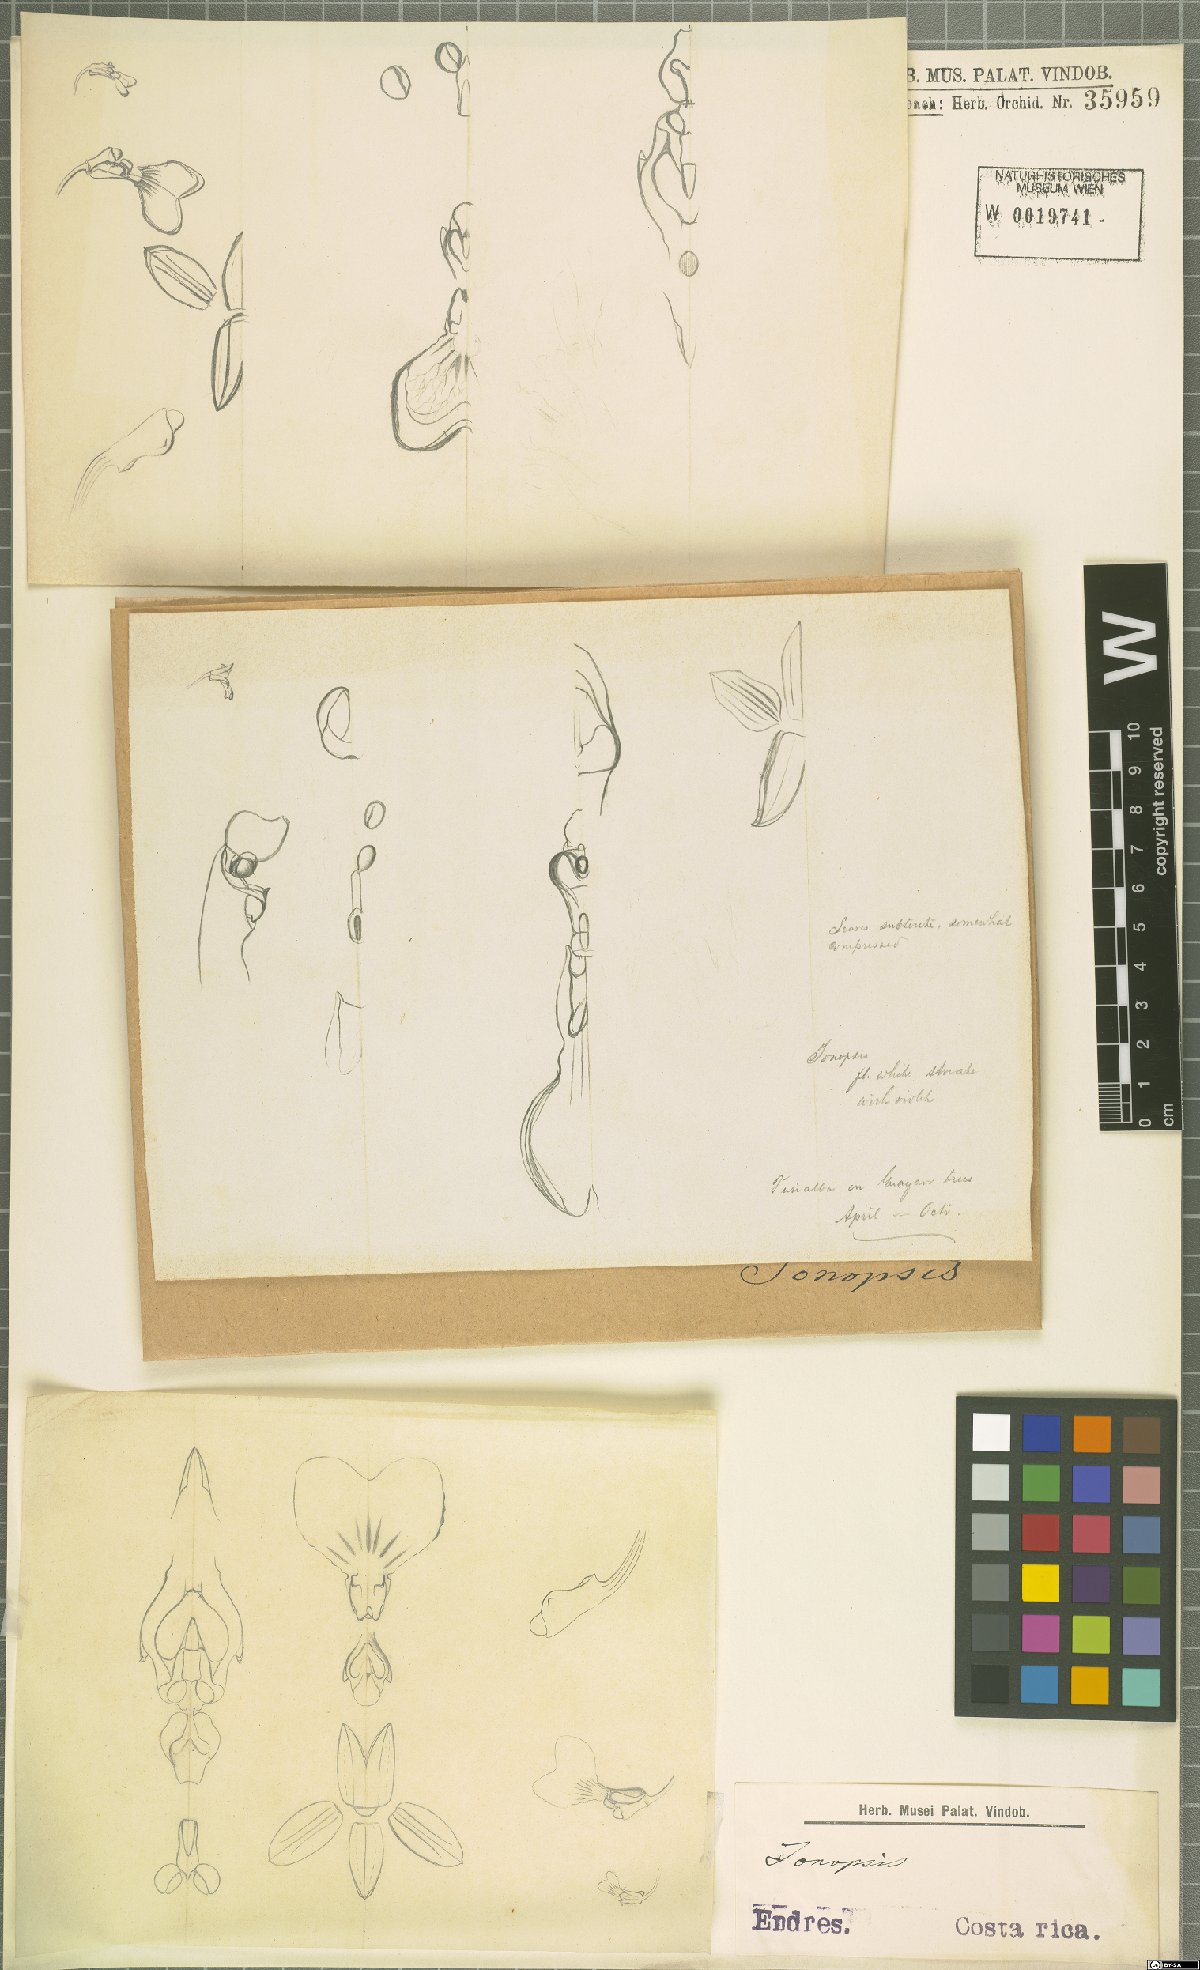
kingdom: Plantae
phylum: Tracheophyta
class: Liliopsida
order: Asparagales
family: Orchidaceae
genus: Ionopsis
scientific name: Ionopsis
